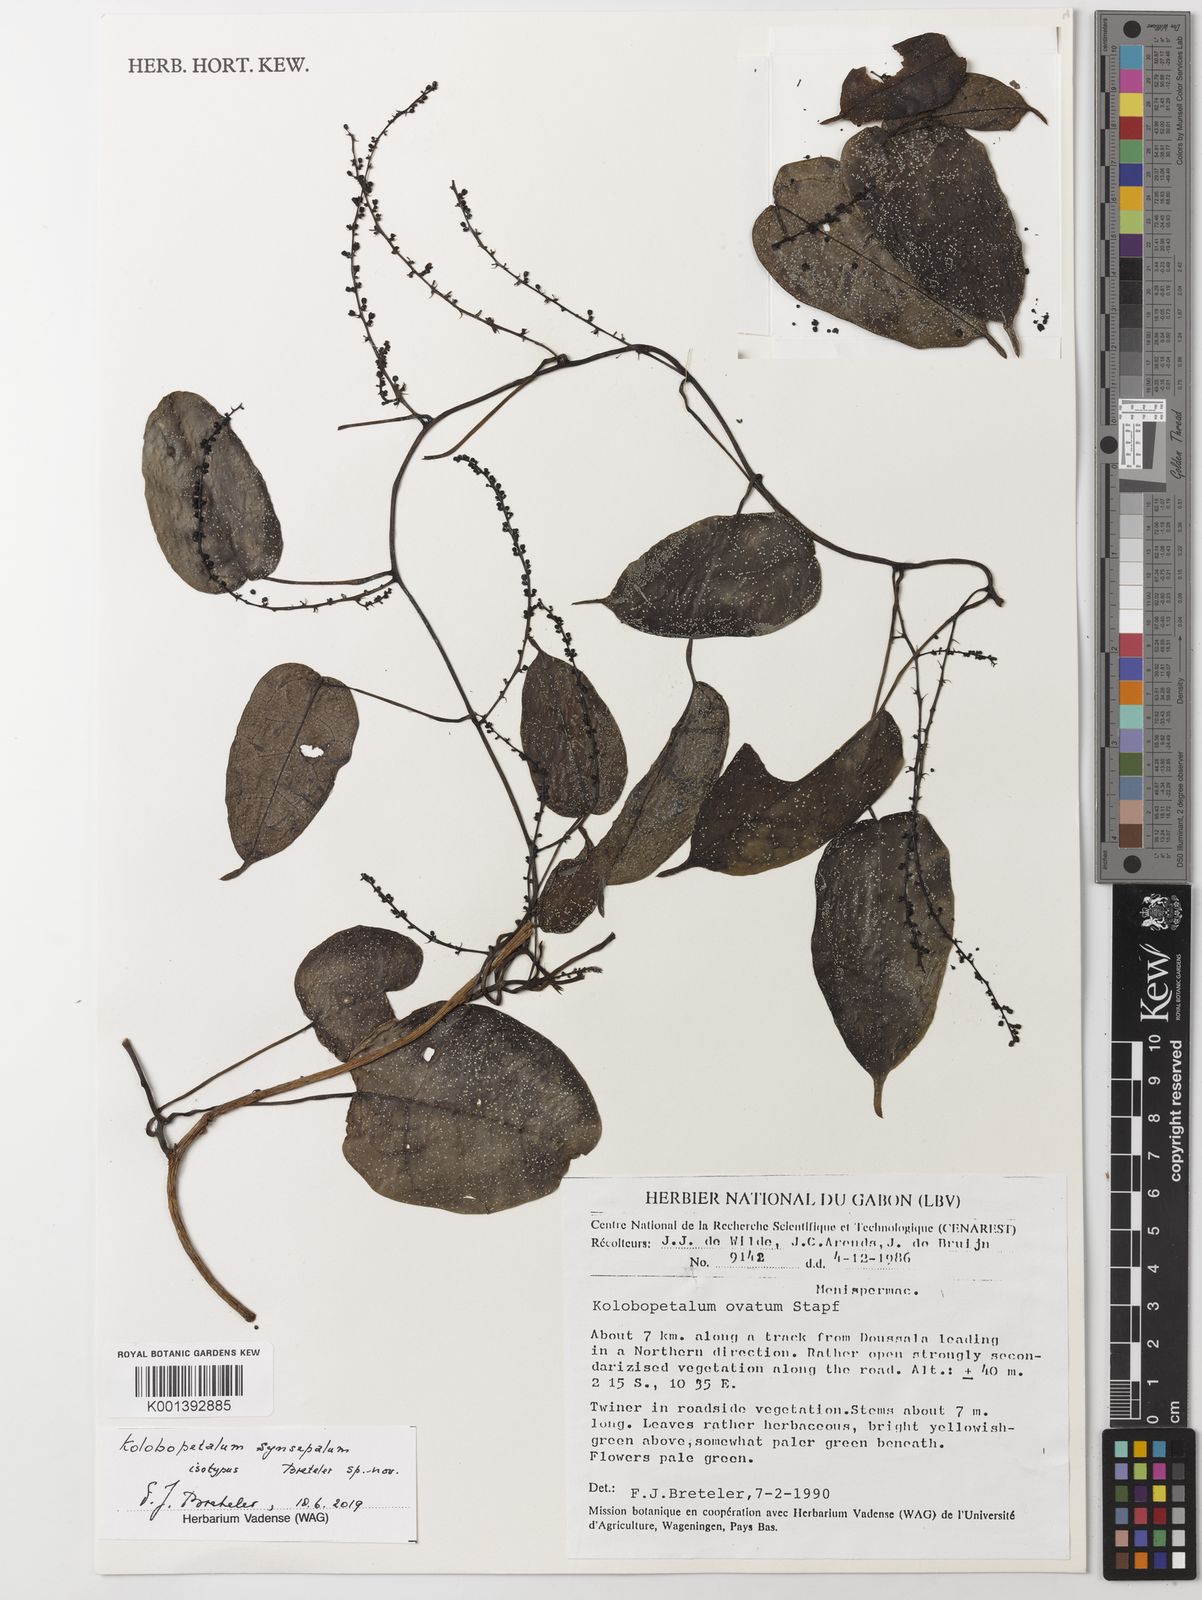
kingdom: Plantae
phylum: Tracheophyta
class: Magnoliopsida
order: Ranunculales
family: Menispermaceae
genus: Kolobopetalum
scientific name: Kolobopetalum
